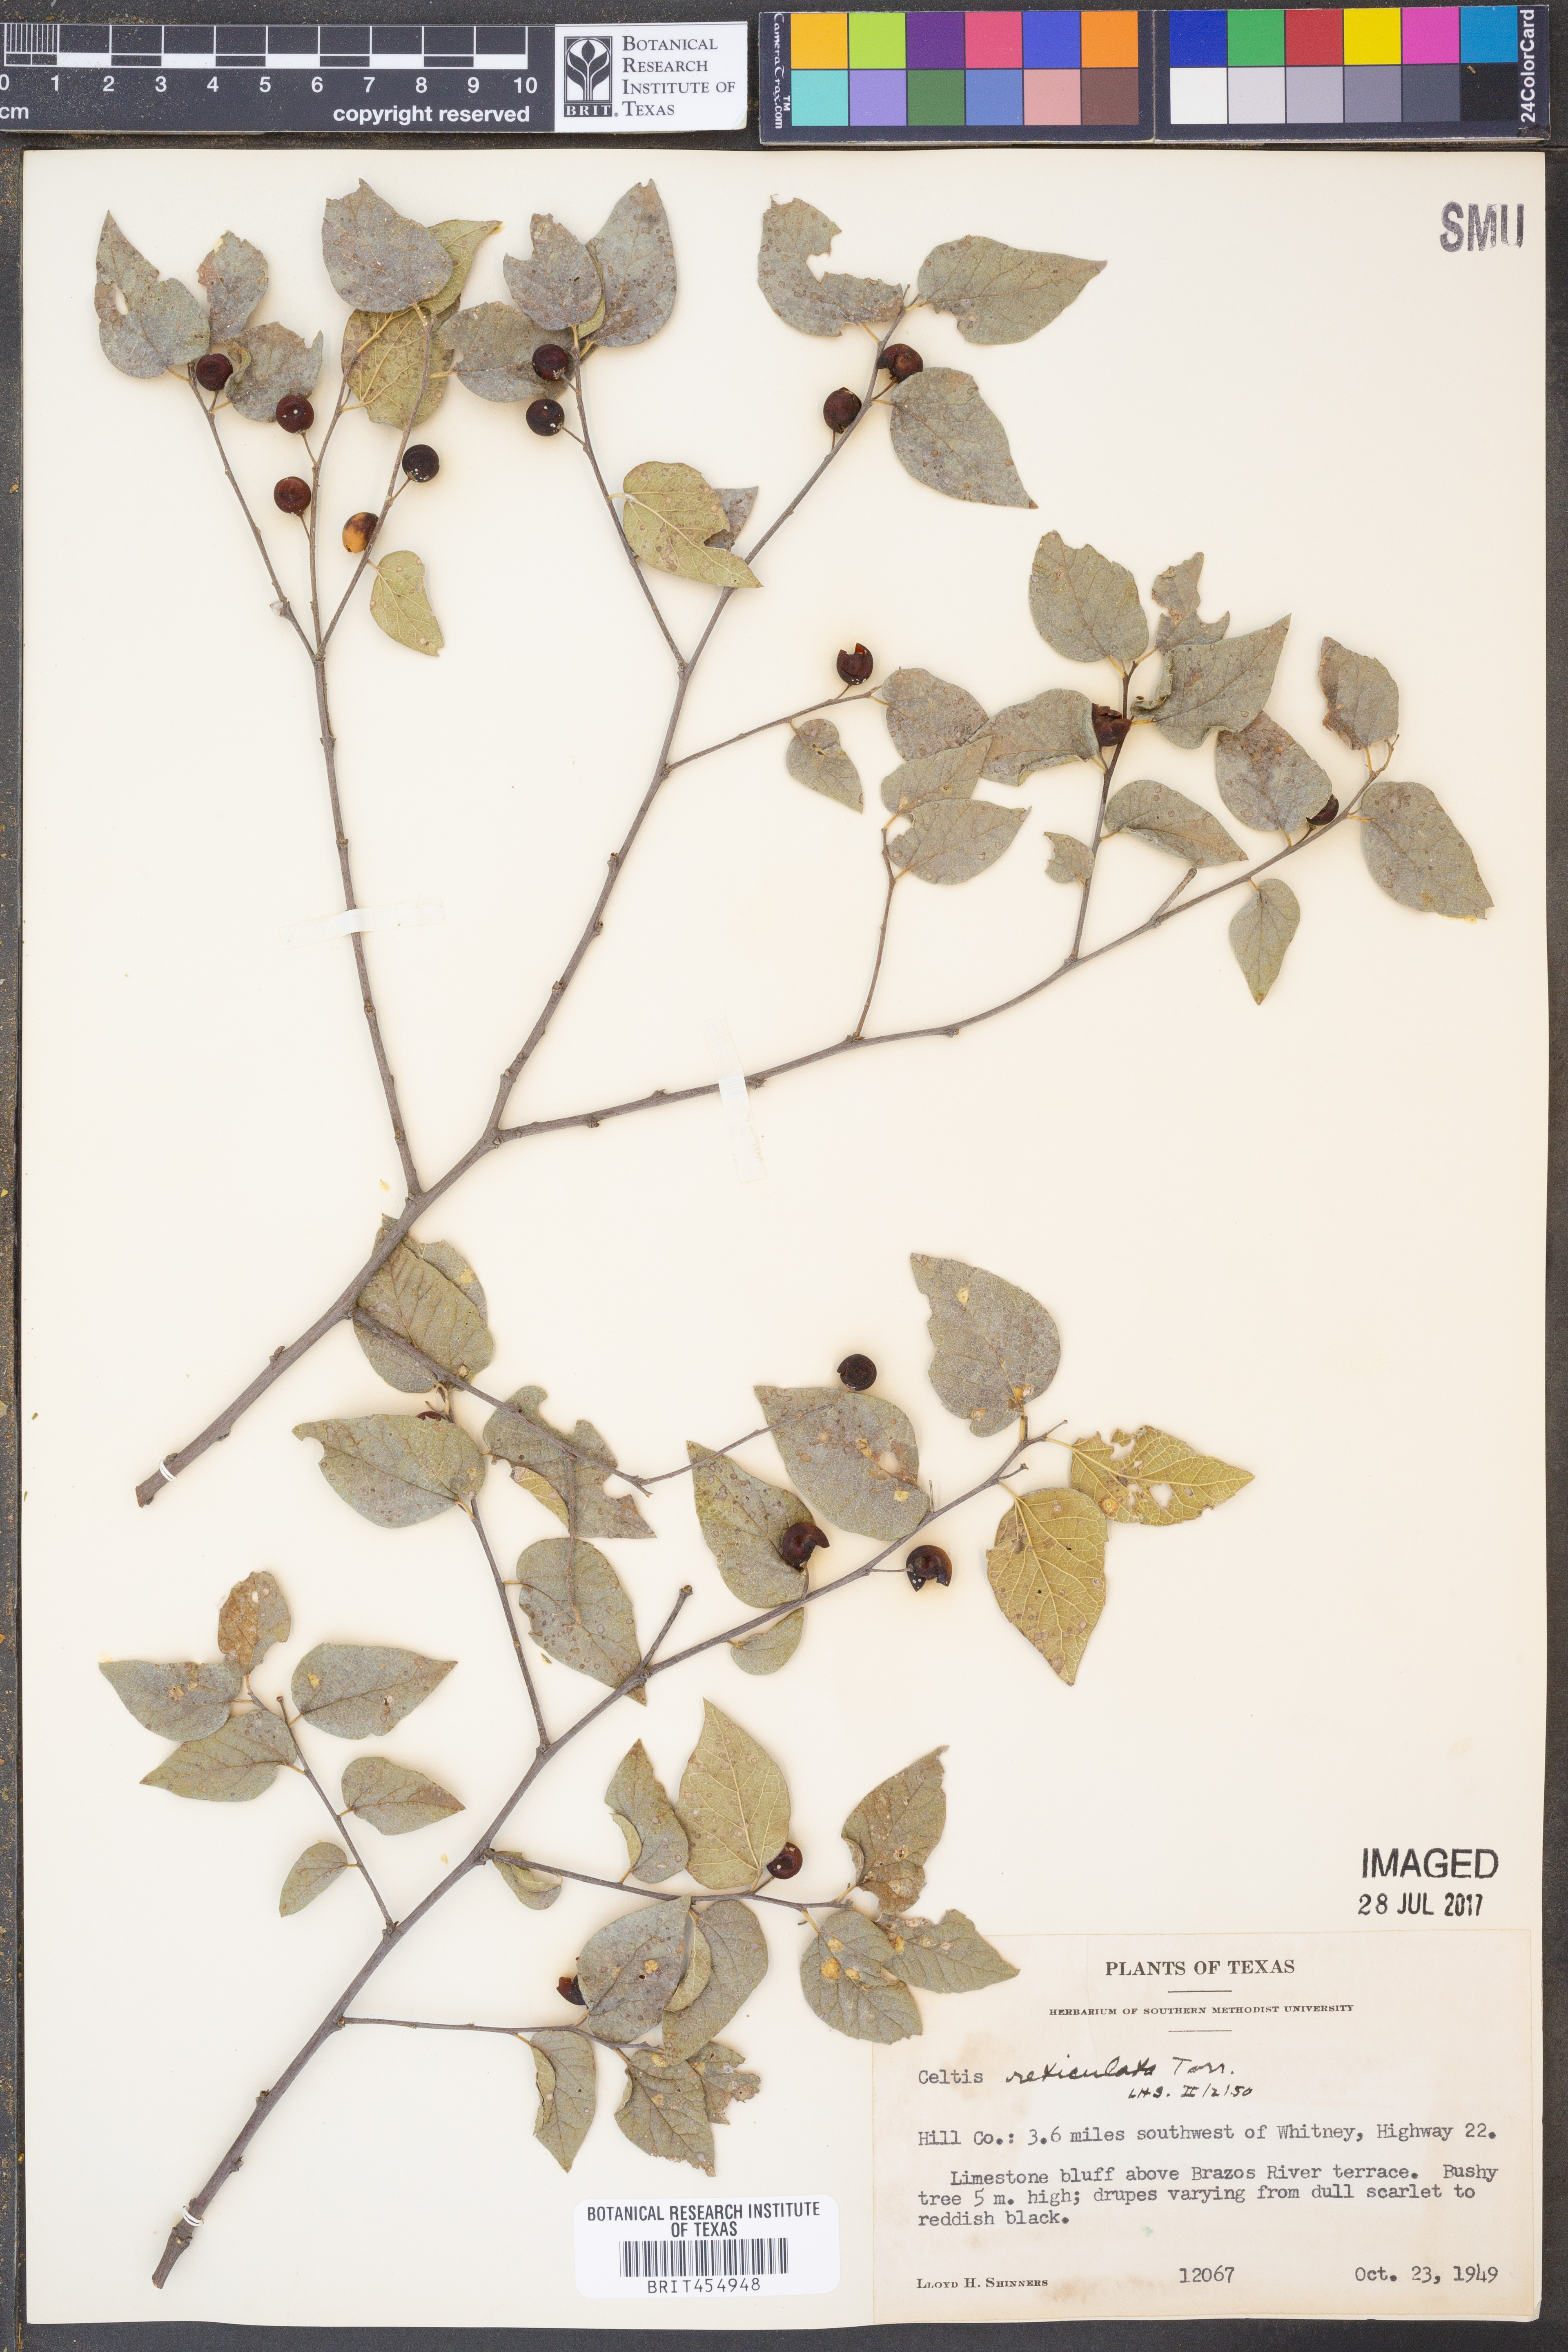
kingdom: Plantae
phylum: Tracheophyta
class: Magnoliopsida
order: Rosales
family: Cannabaceae
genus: Celtis
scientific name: Celtis reticulata
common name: Netleaf hackberry
